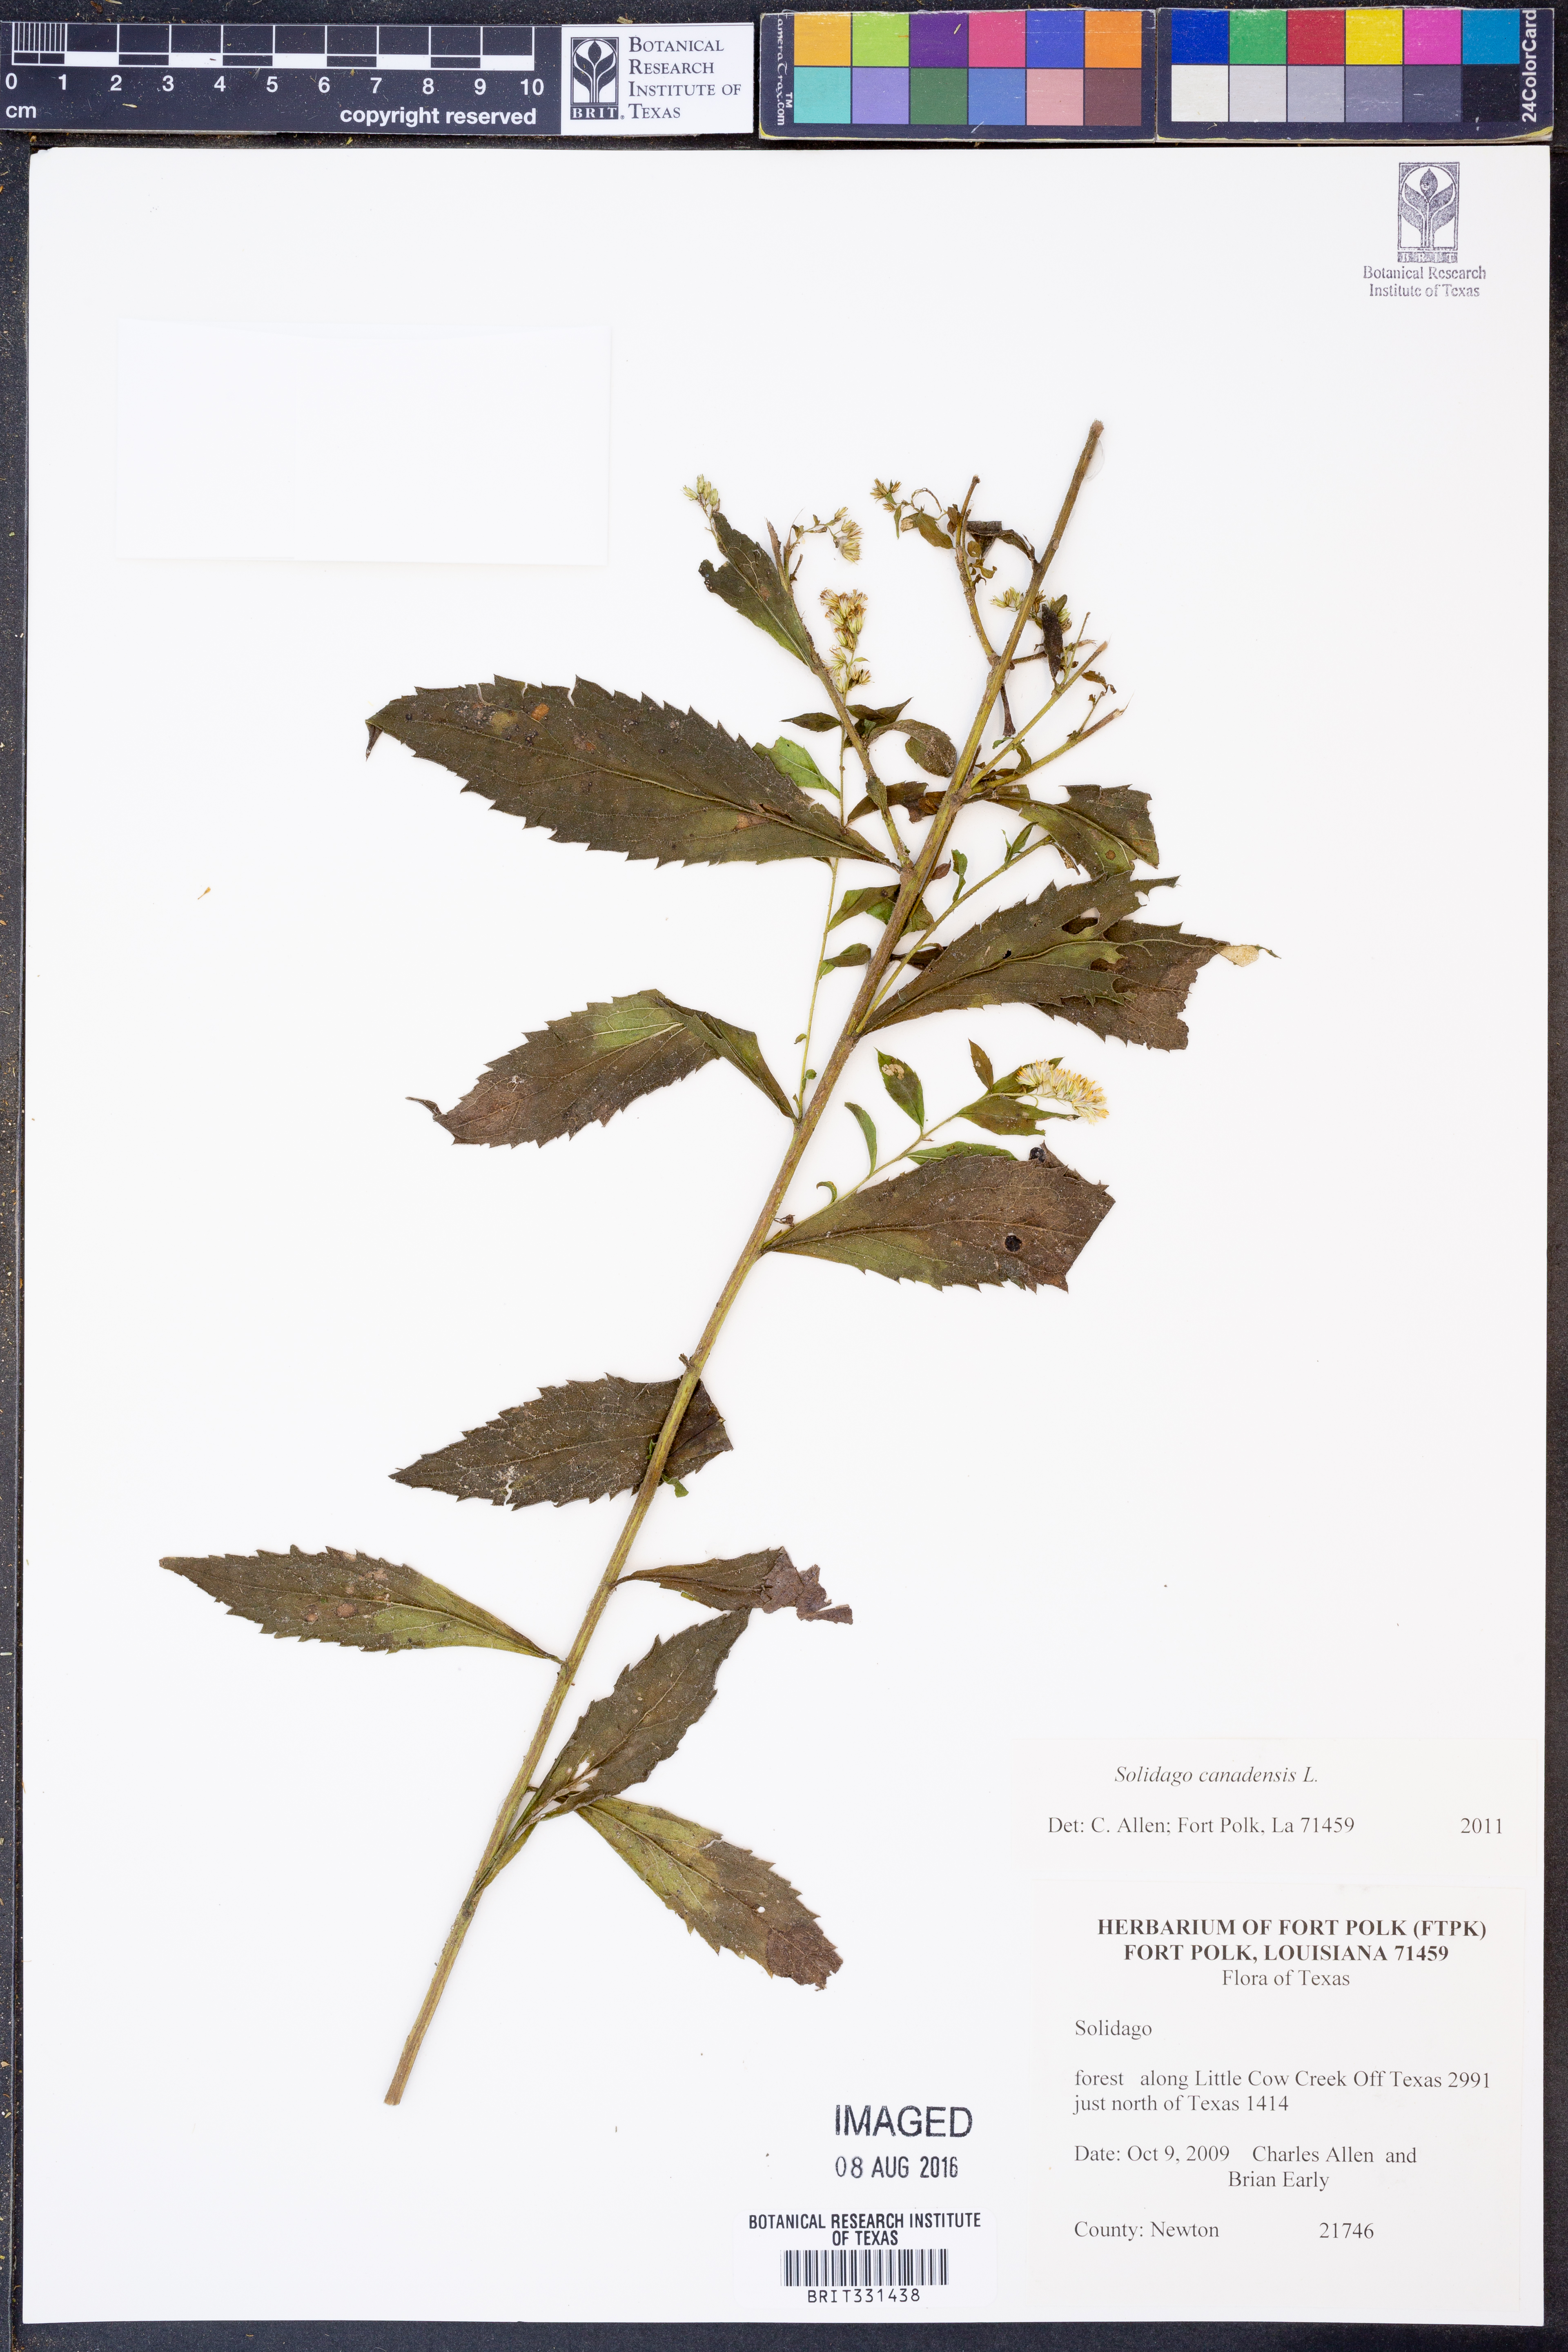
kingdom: Plantae
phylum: Tracheophyta
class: Magnoliopsida
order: Asterales
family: Asteraceae
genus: Solidago
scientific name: Solidago canadensis
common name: Canada goldenrod
